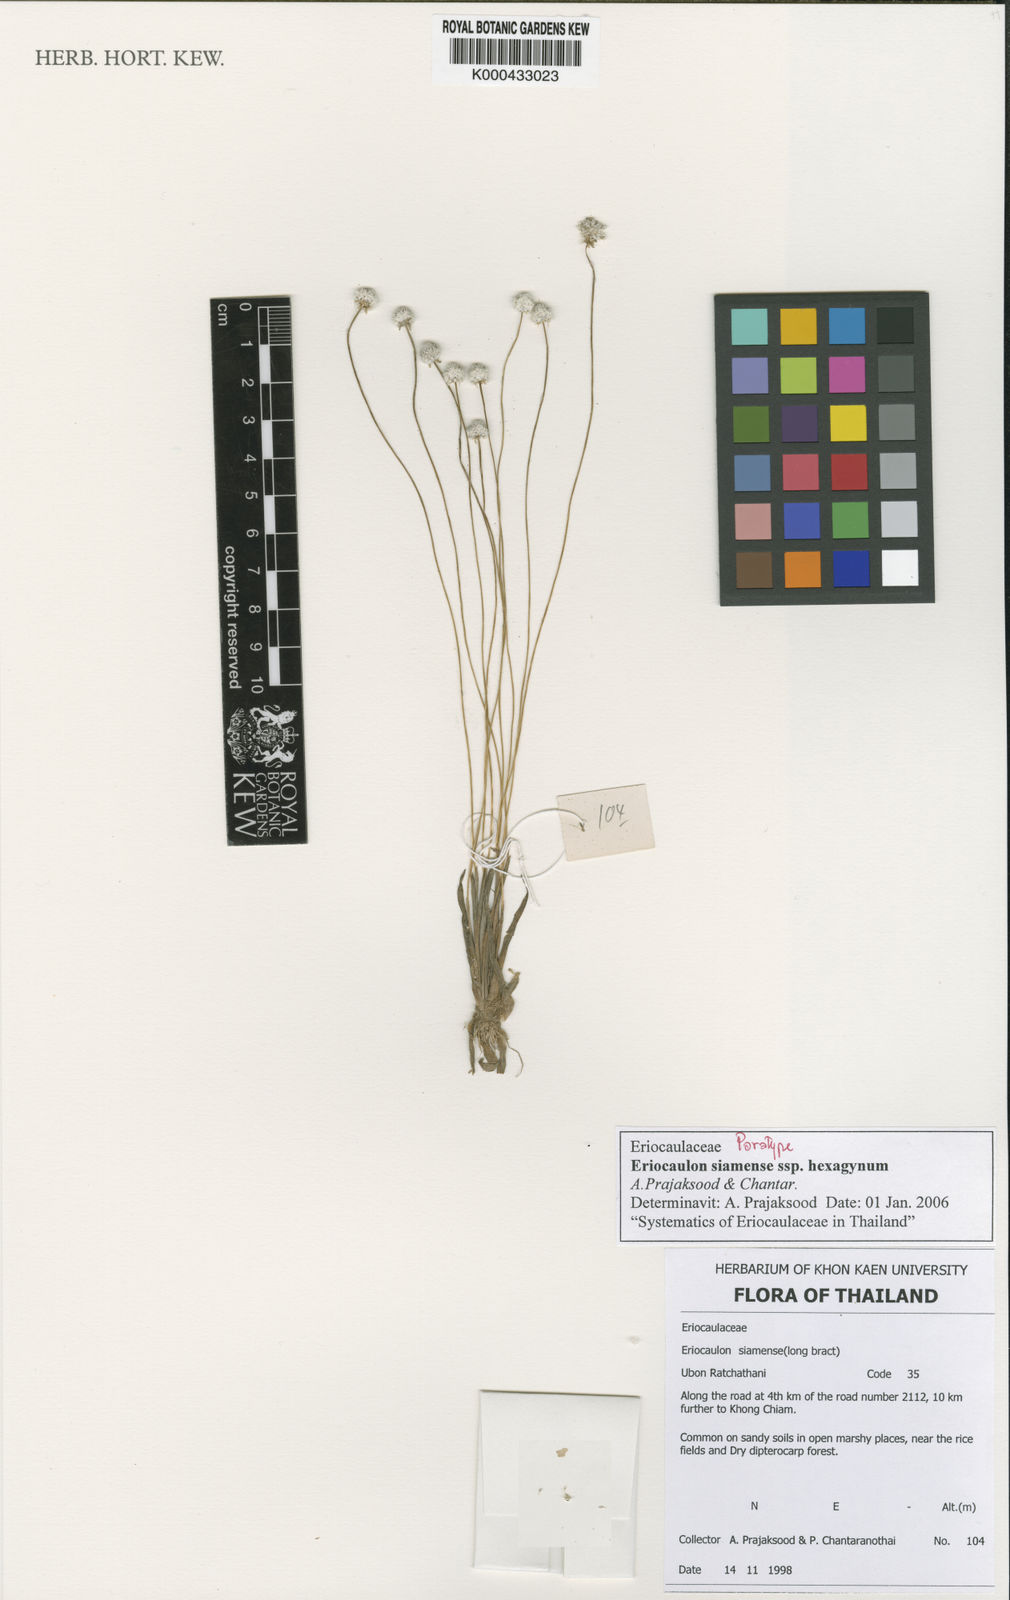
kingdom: Plantae
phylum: Tracheophyta
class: Liliopsida
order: Poales
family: Eriocaulaceae
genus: Eriocaulon
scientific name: Eriocaulon siamense
